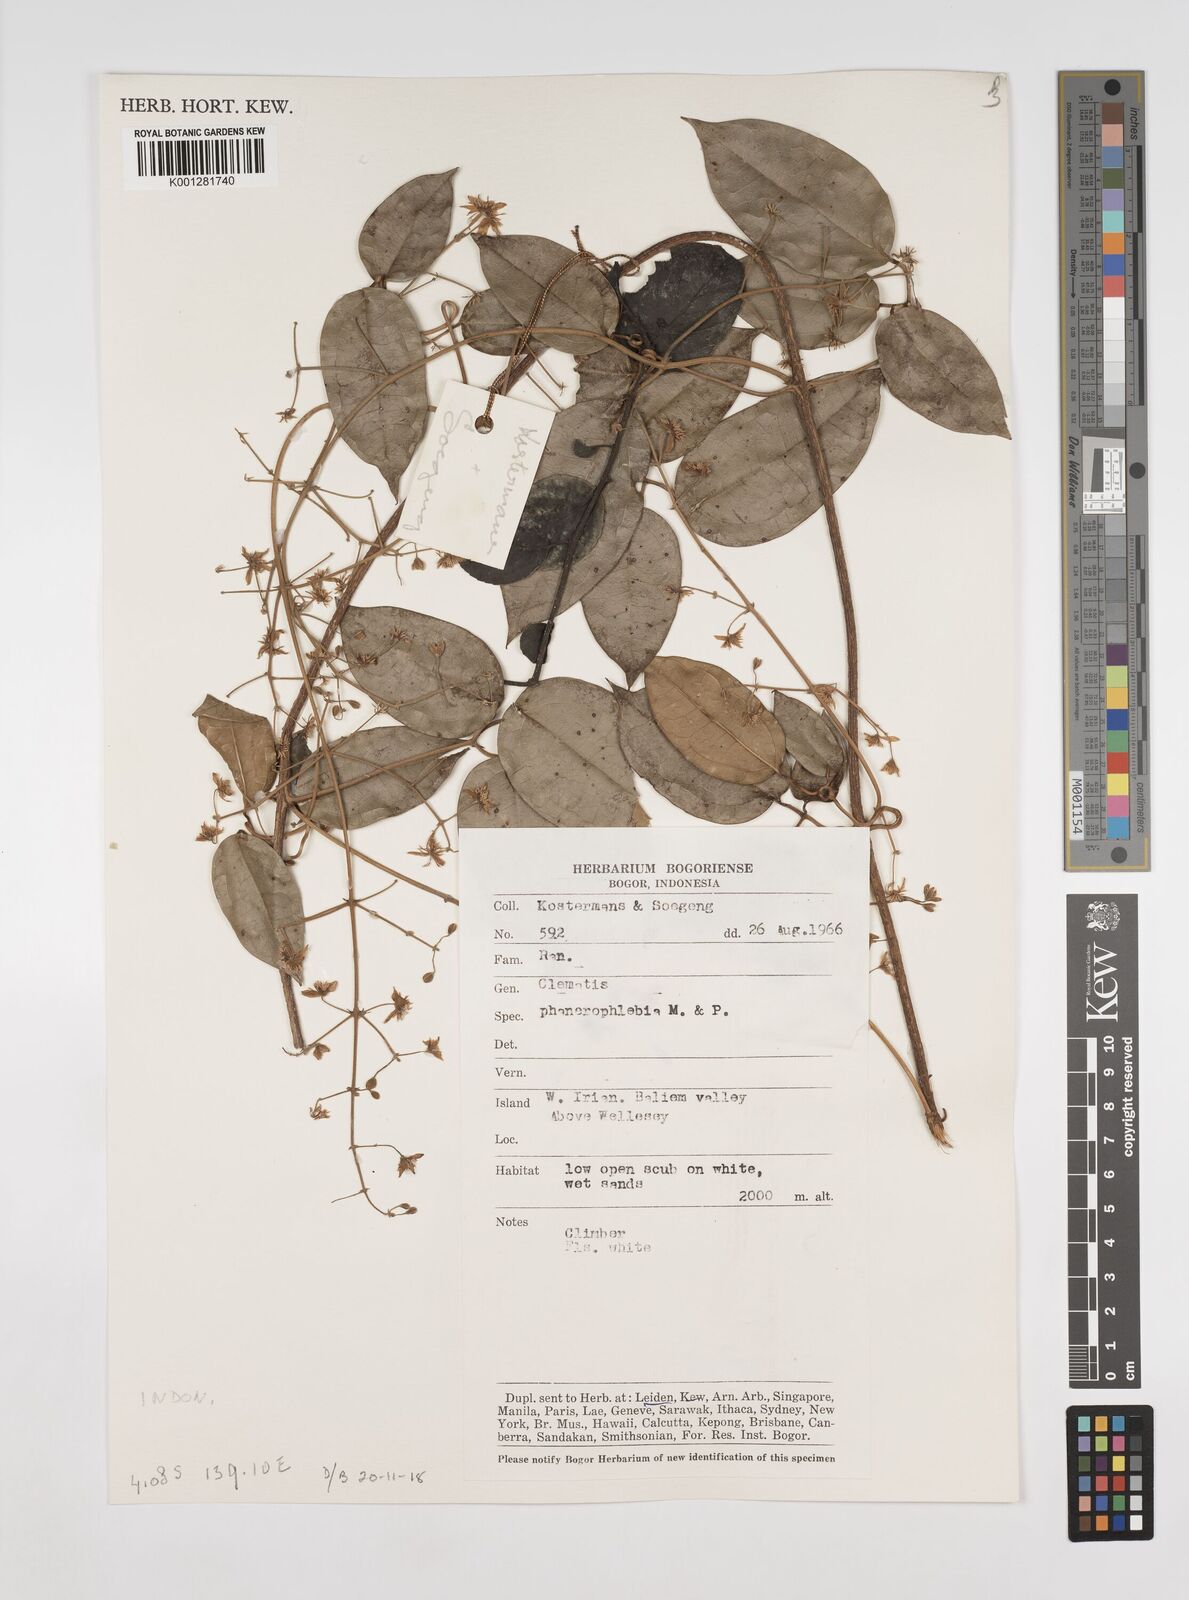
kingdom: Plantae
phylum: Tracheophyta
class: Magnoliopsida
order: Ranunculales
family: Ranunculaceae
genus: Clematis
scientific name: Clematis phanerophlebia
